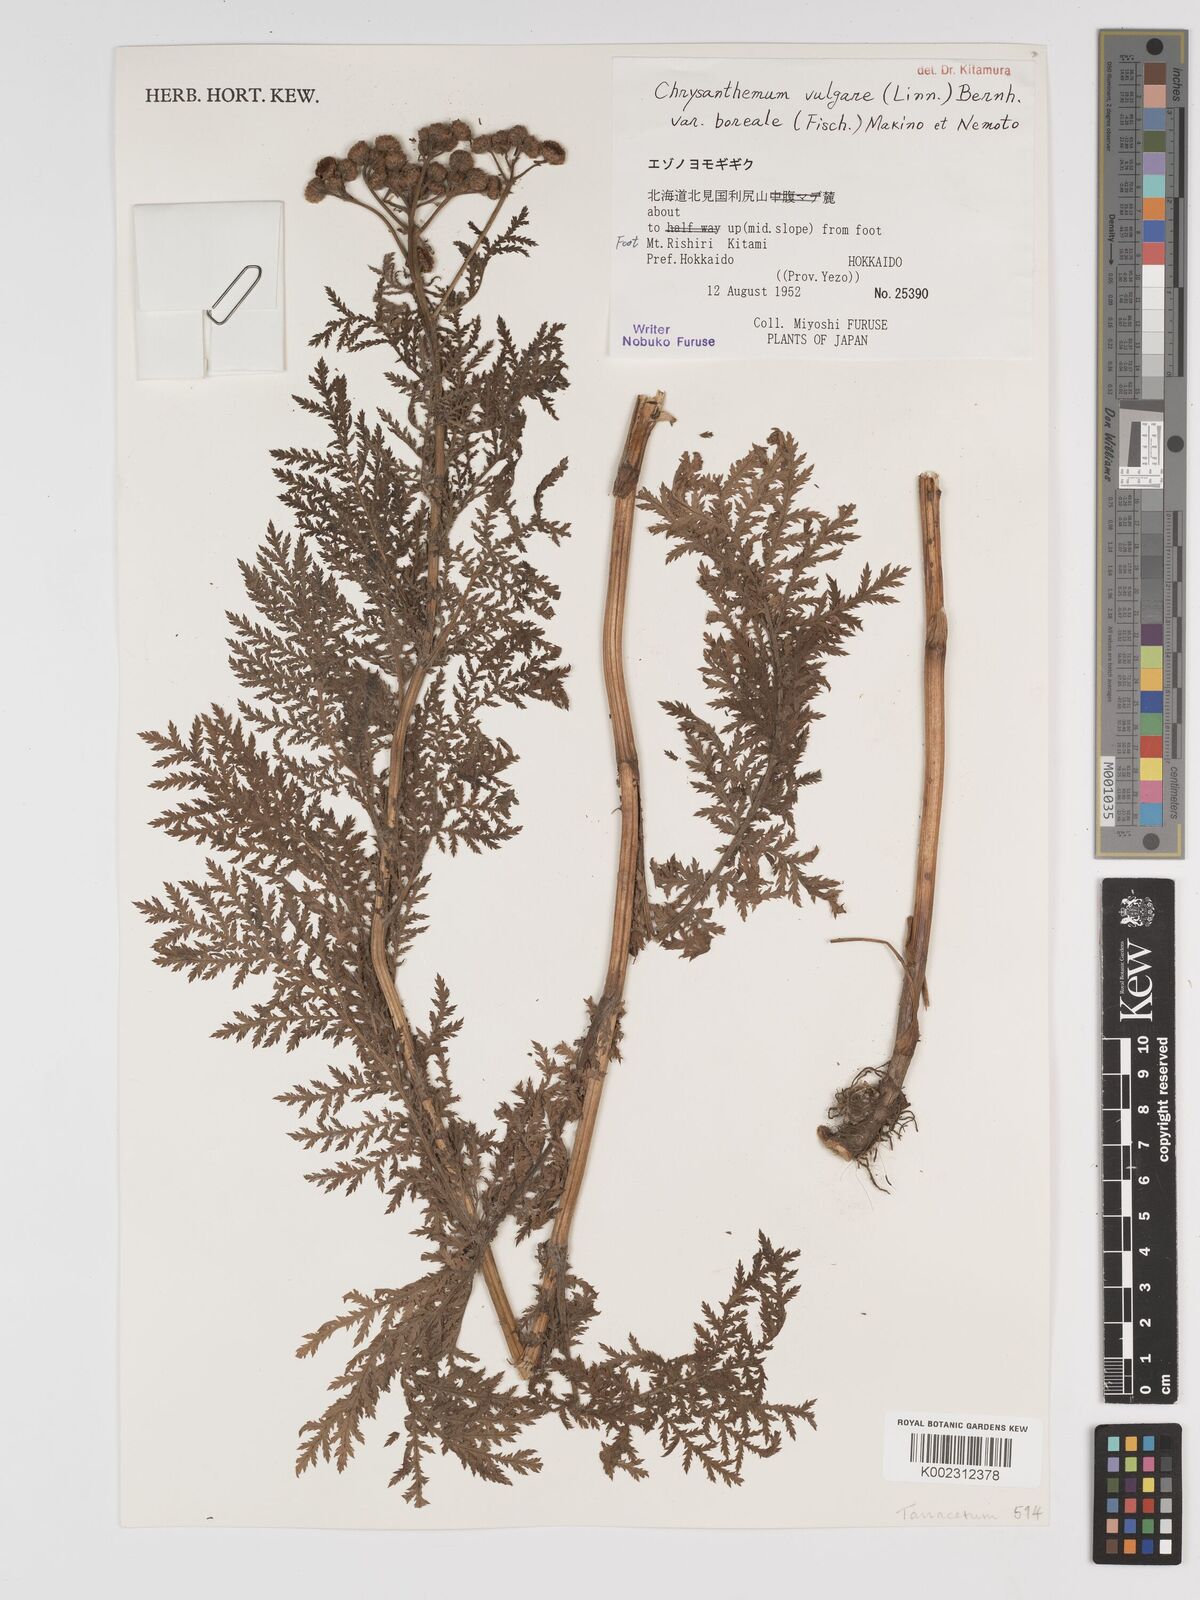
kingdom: Plantae
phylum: Tracheophyta
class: Magnoliopsida
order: Asterales
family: Asteraceae
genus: Tanacetum
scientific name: Tanacetum vulgare
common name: Common tansy
